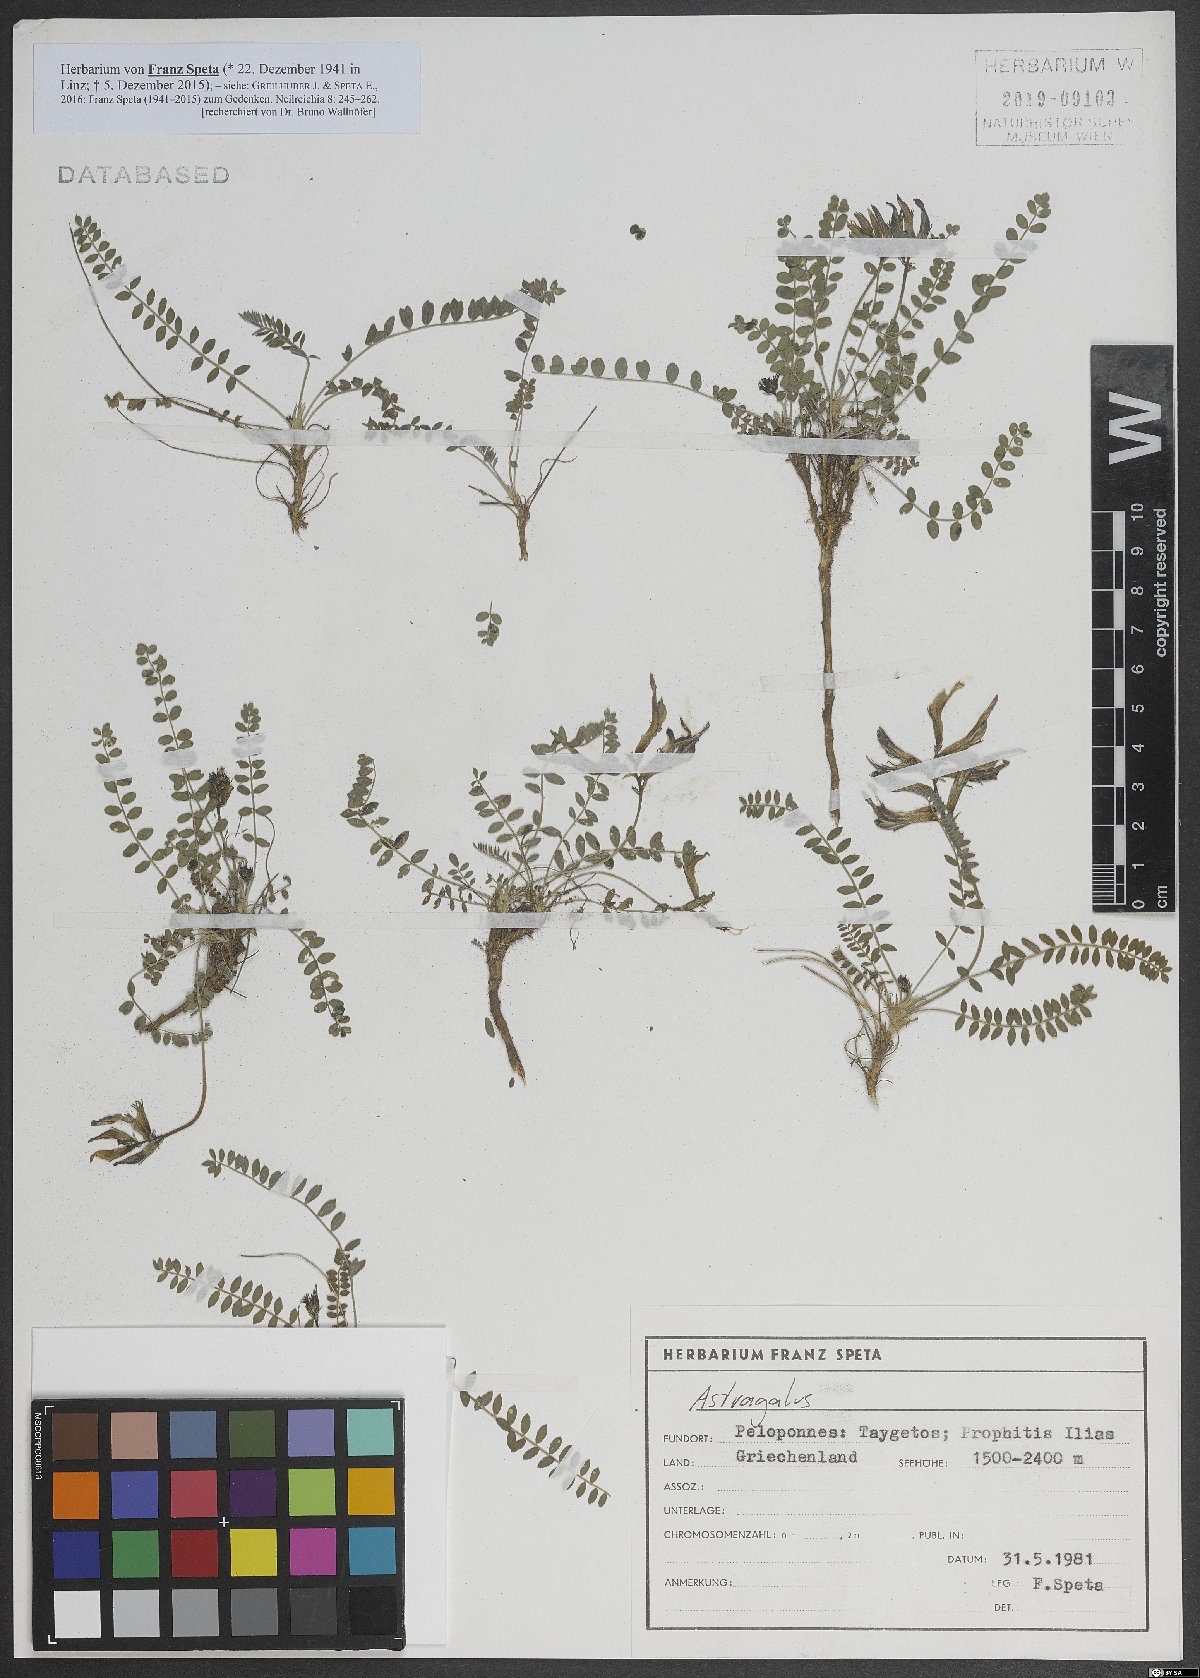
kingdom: Plantae
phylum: Tracheophyta
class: Magnoliopsida
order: Fabales
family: Fabaceae
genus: Astragalus
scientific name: Astragalus
